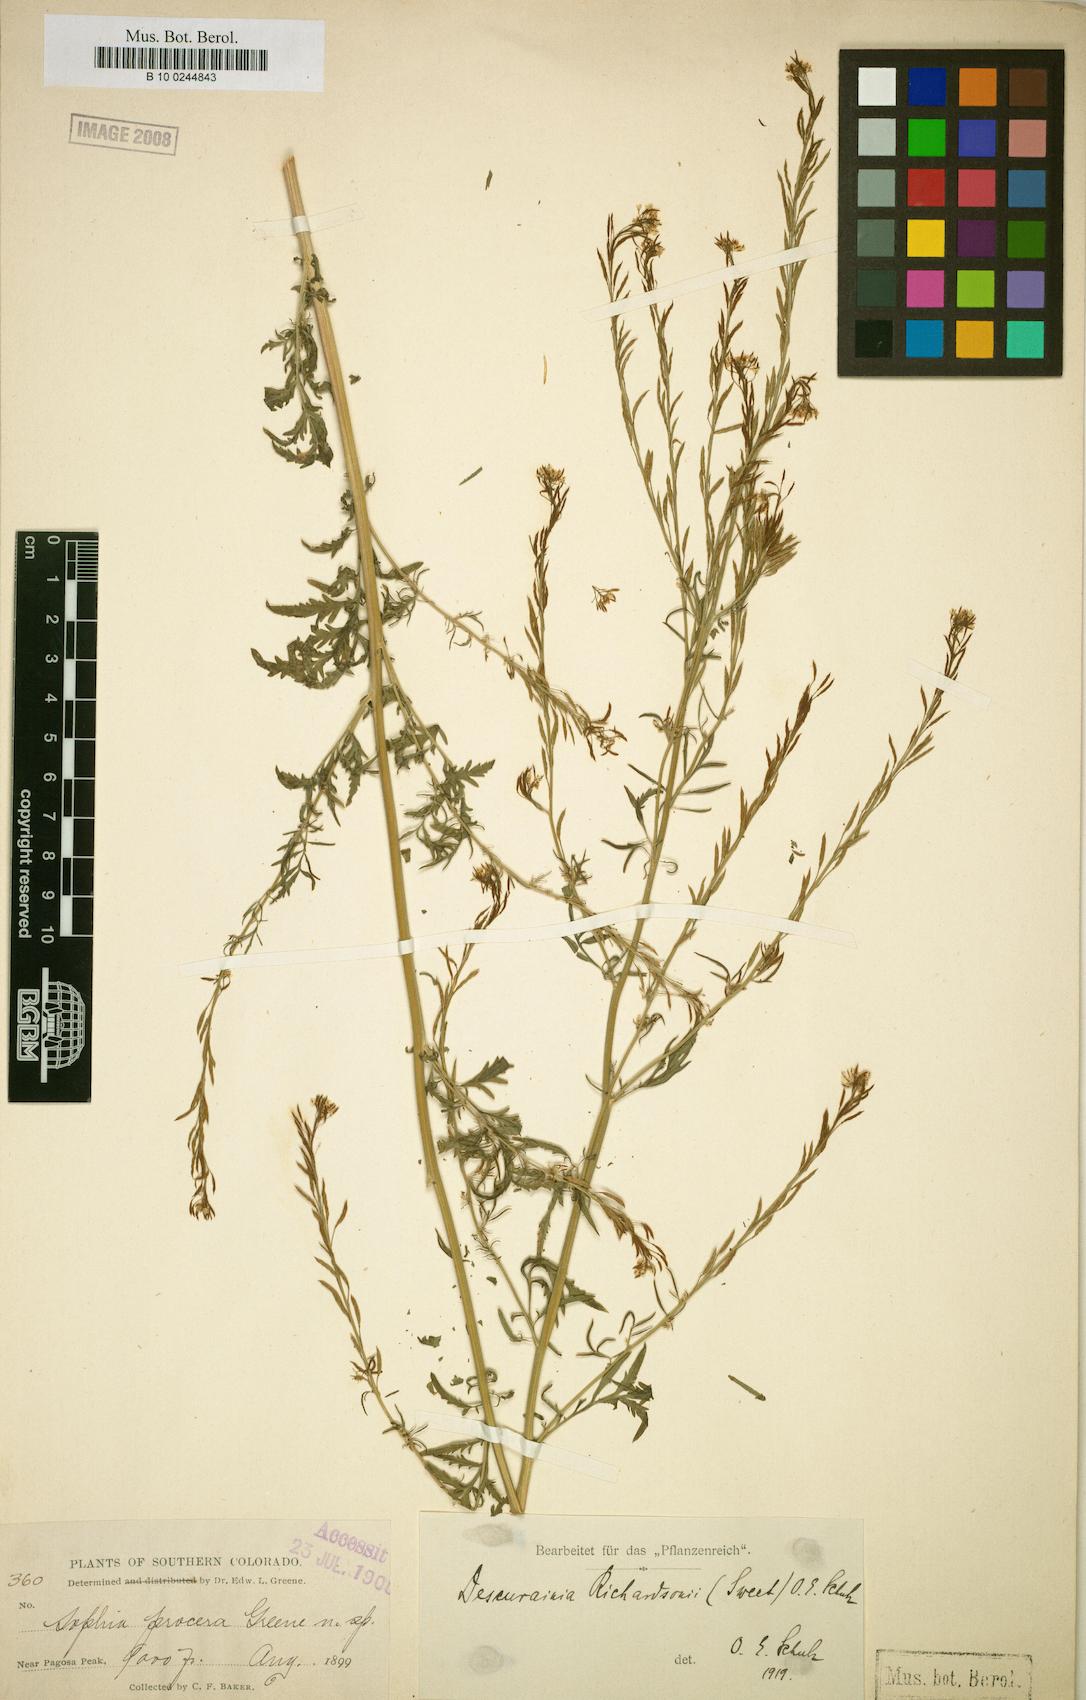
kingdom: Plantae
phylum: Tracheophyta
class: Magnoliopsida
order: Brassicales
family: Brassicaceae
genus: Descurainia
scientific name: Descurainia richardsonii
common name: Western tansy-mustard
